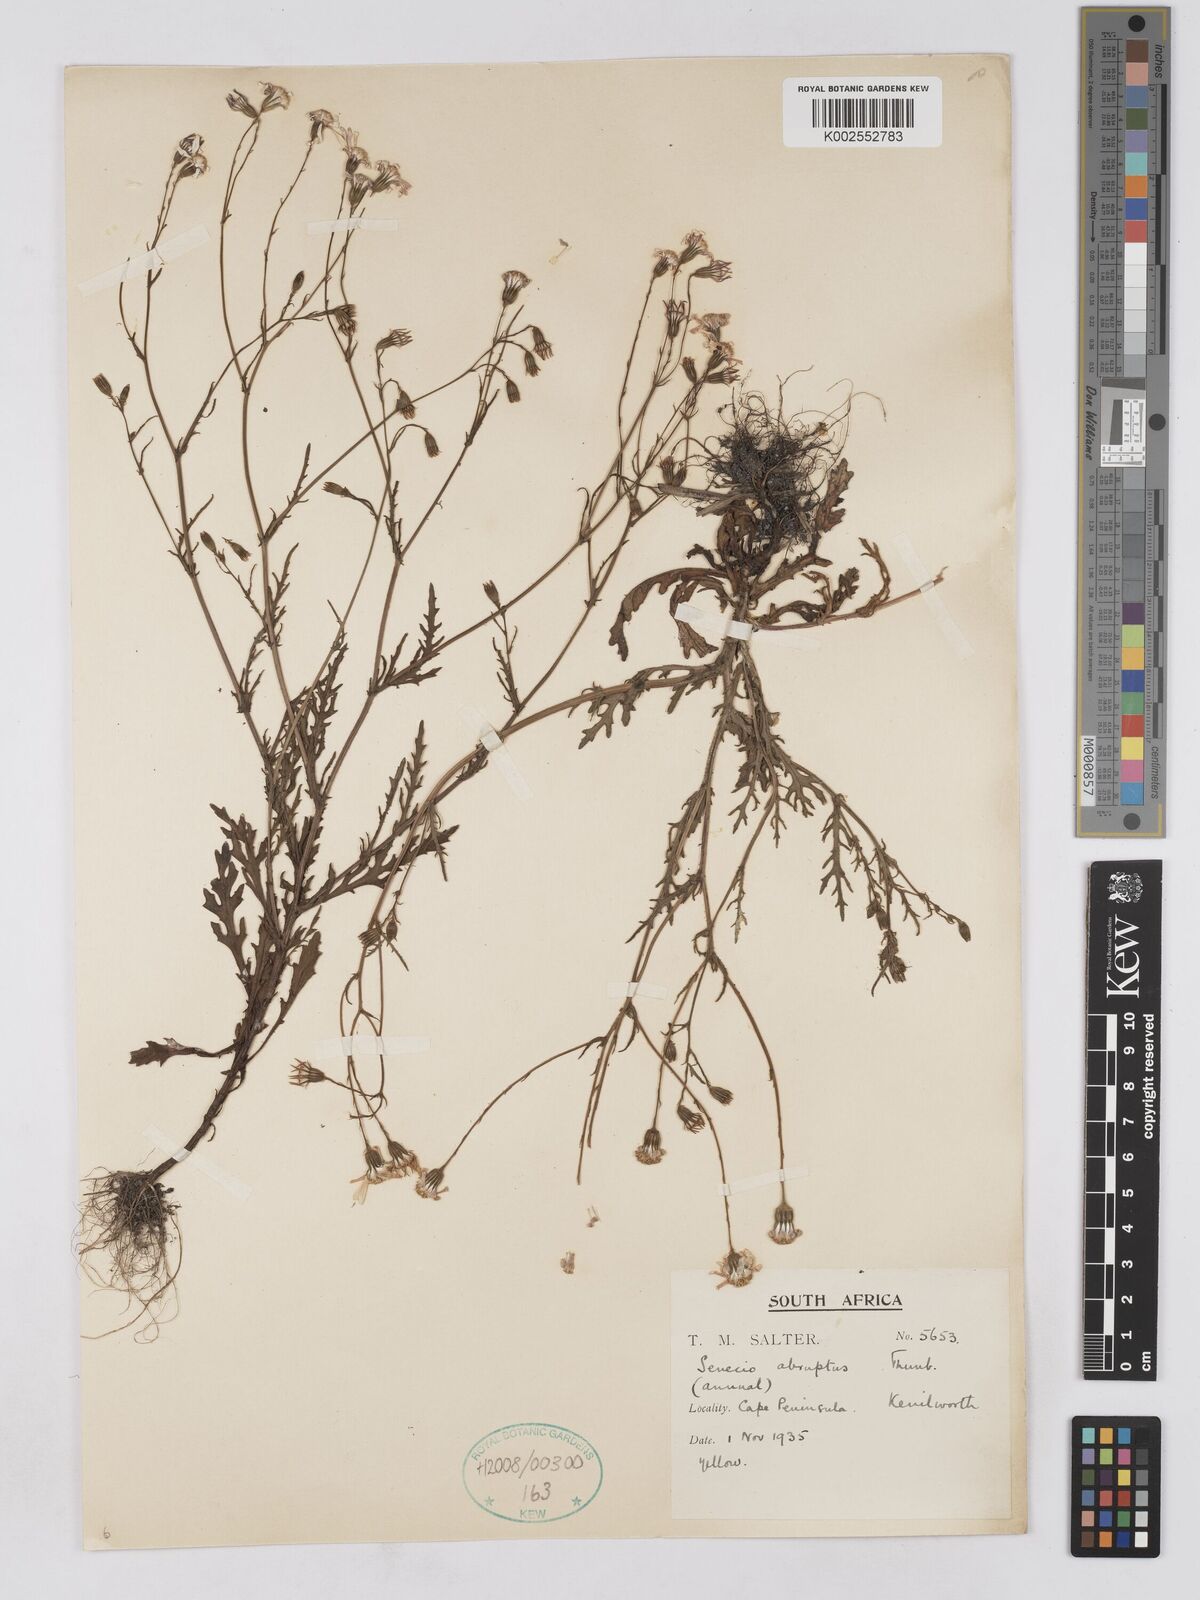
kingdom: Plantae
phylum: Tracheophyta
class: Magnoliopsida
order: Asterales
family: Asteraceae
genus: Senecio
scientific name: Senecio abruptus
